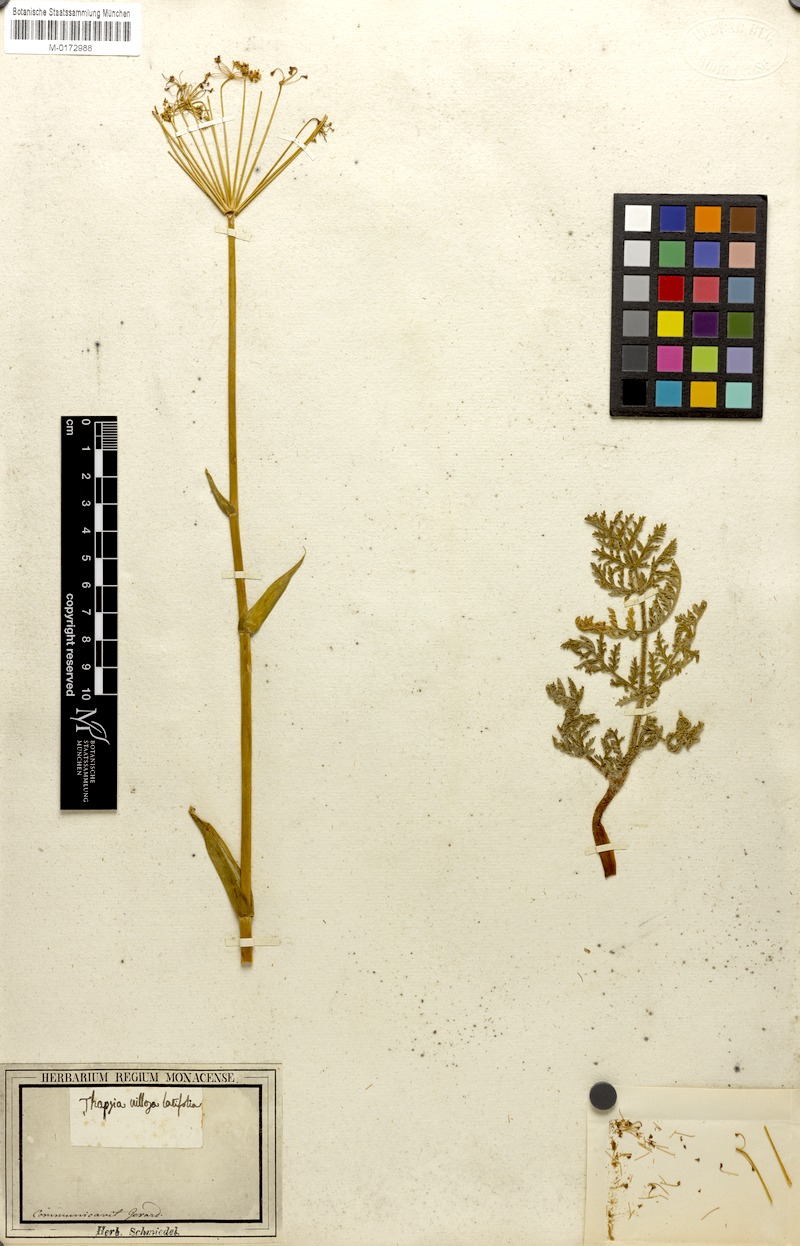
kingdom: Plantae
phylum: Tracheophyta
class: Magnoliopsida
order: Apiales
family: Apiaceae
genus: Thapsia
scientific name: Thapsia villosa
